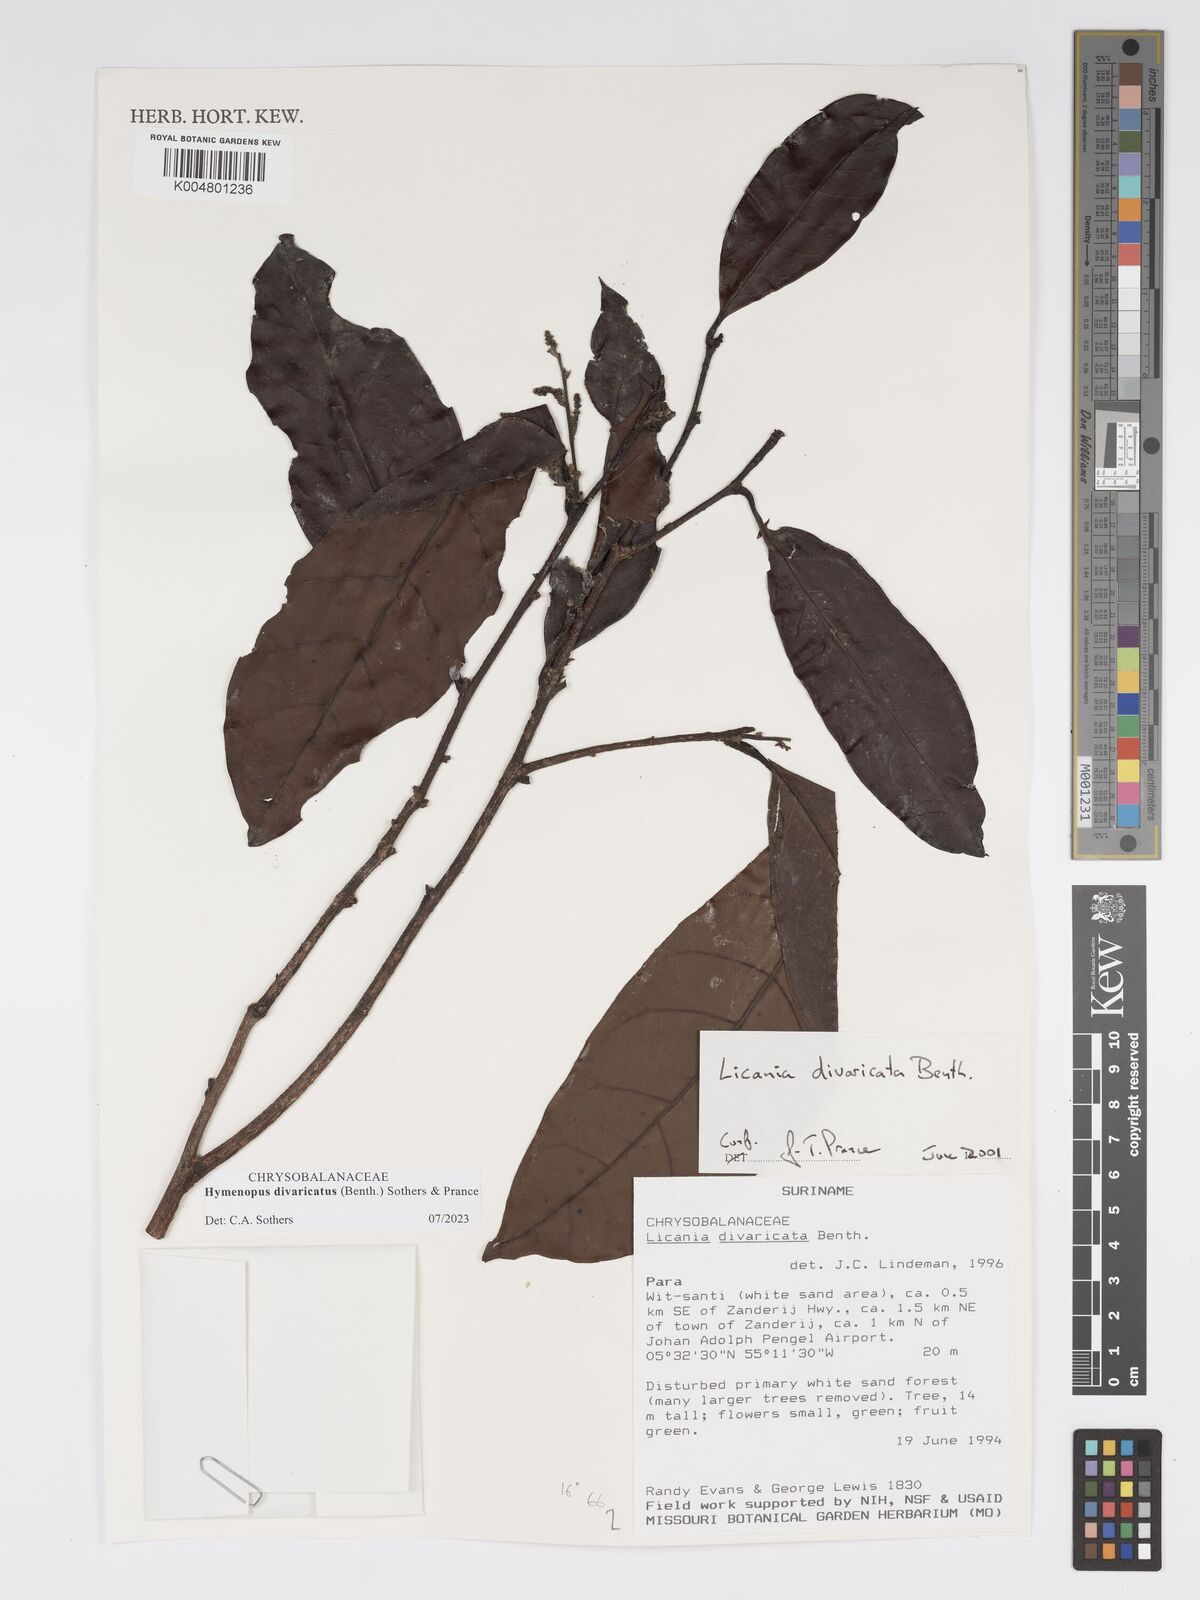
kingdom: Plantae
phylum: Tracheophyta
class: Magnoliopsida
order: Malpighiales
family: Chrysobalanaceae
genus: Hymenopus
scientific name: Hymenopus divaricatus
